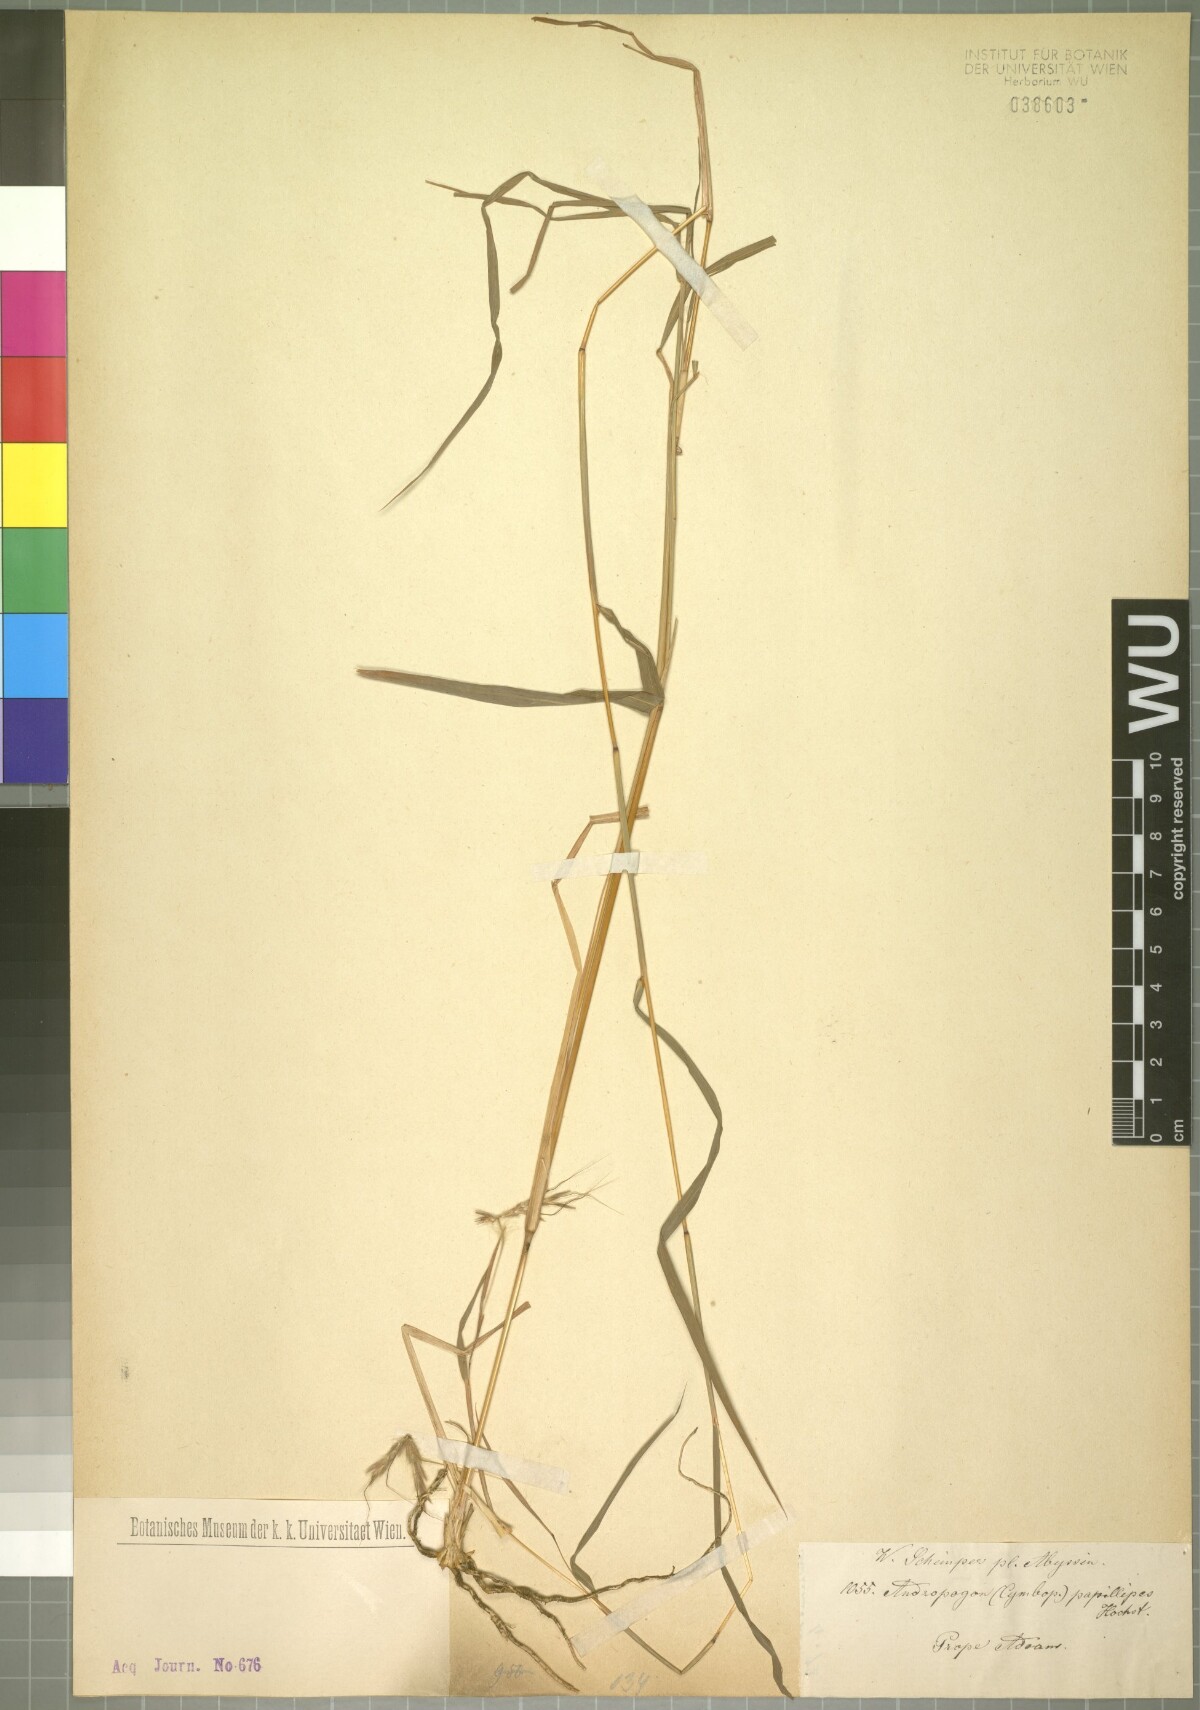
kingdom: Plantae
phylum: Tracheophyta
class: Liliopsida
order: Poales
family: Poaceae
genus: Hyparrhenia
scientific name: Hyparrhenia papillipes
